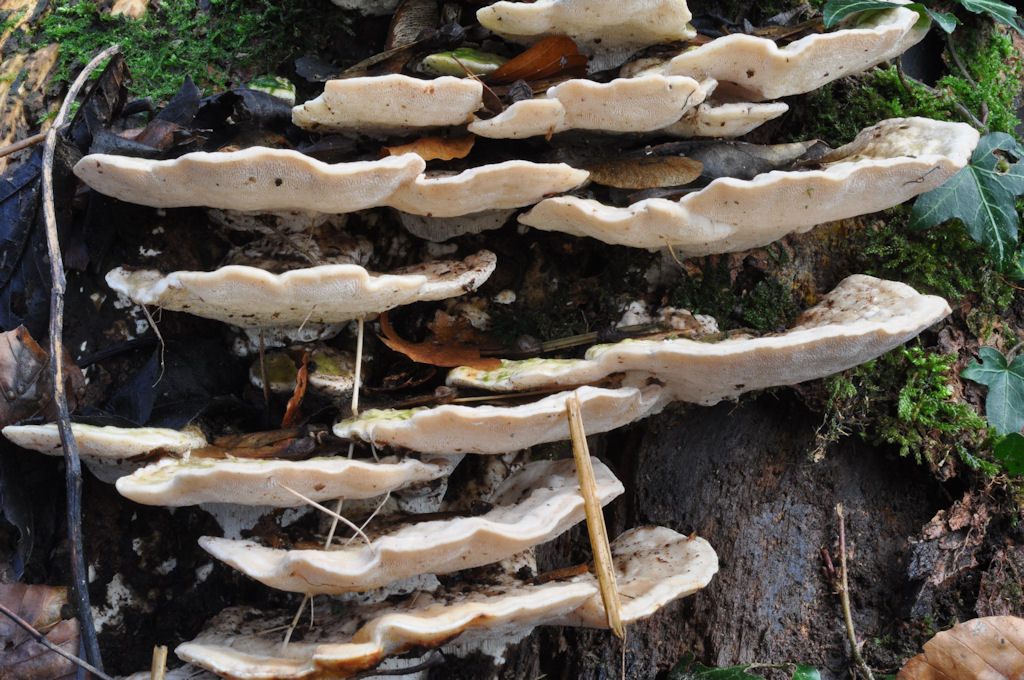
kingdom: Fungi
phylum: Basidiomycota
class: Agaricomycetes
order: Polyporales
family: Polyporaceae
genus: Trametes
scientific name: Trametes gibbosa
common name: puklet læderporesvamp
